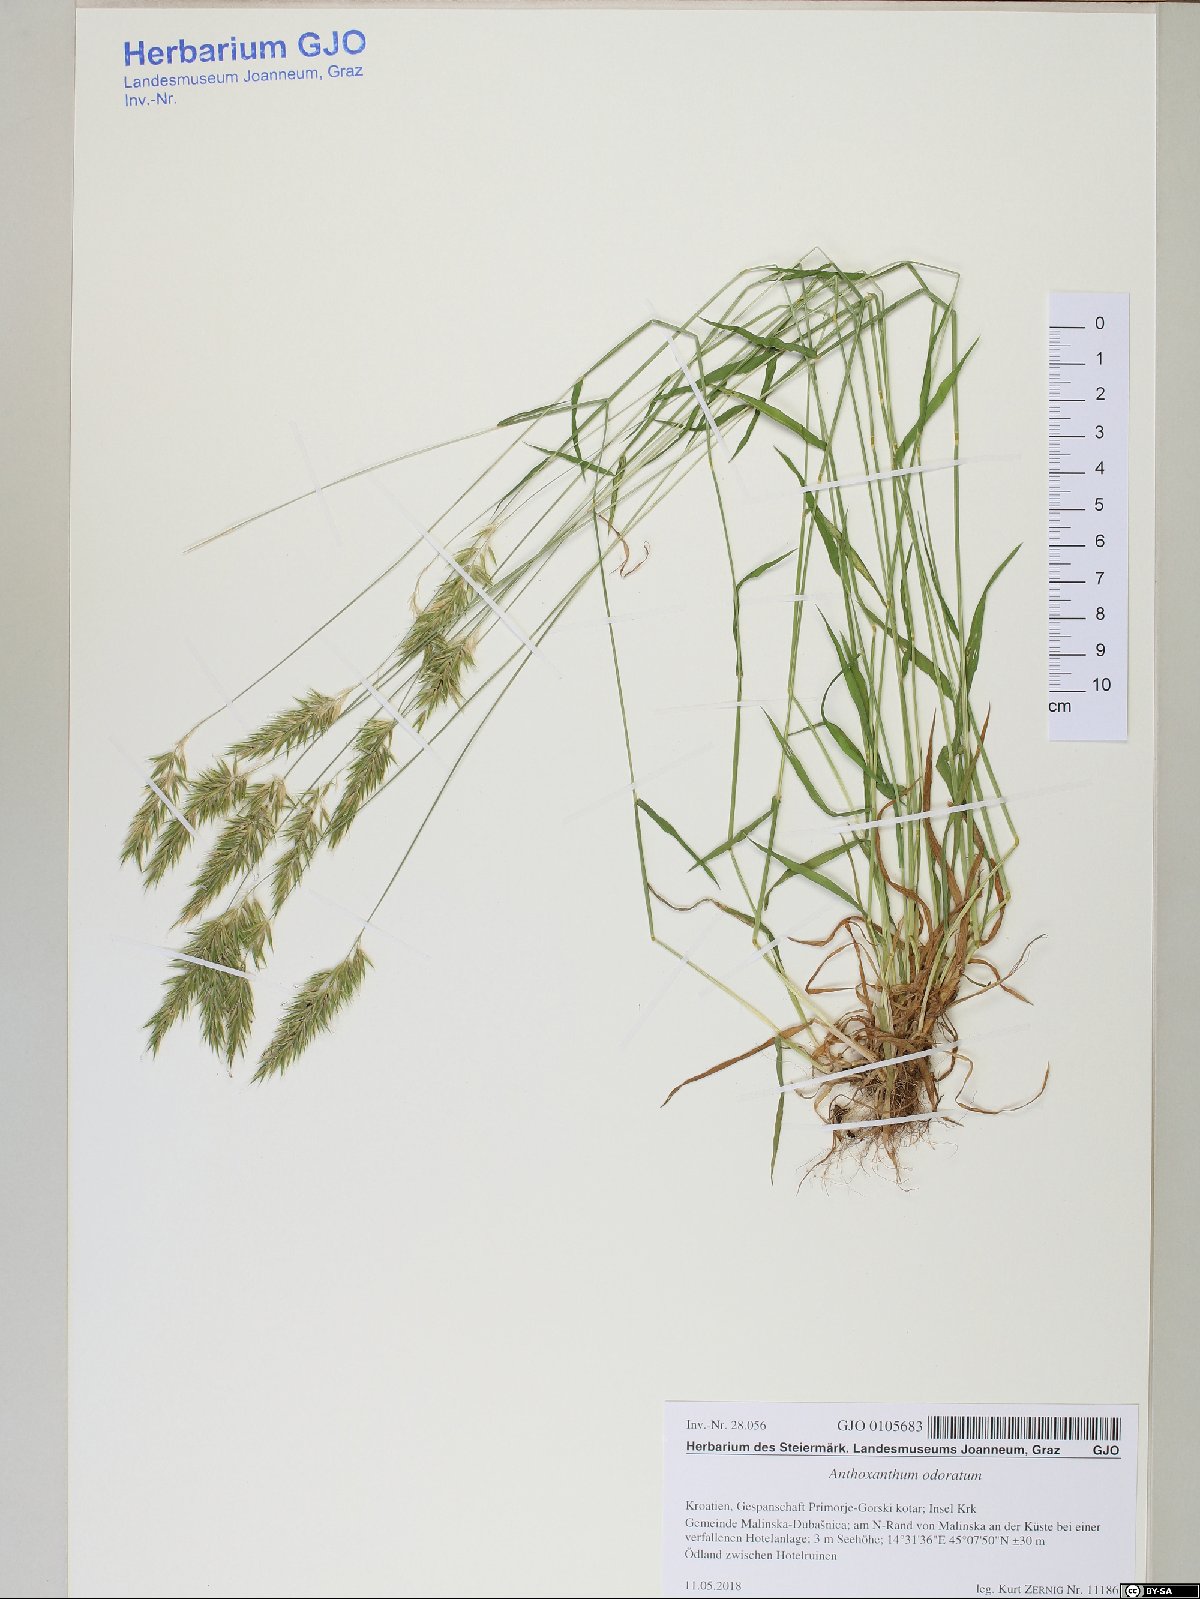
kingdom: Plantae
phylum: Tracheophyta
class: Liliopsida
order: Poales
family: Poaceae
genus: Anthoxanthum
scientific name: Anthoxanthum odoratum
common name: Sweet vernalgrass
